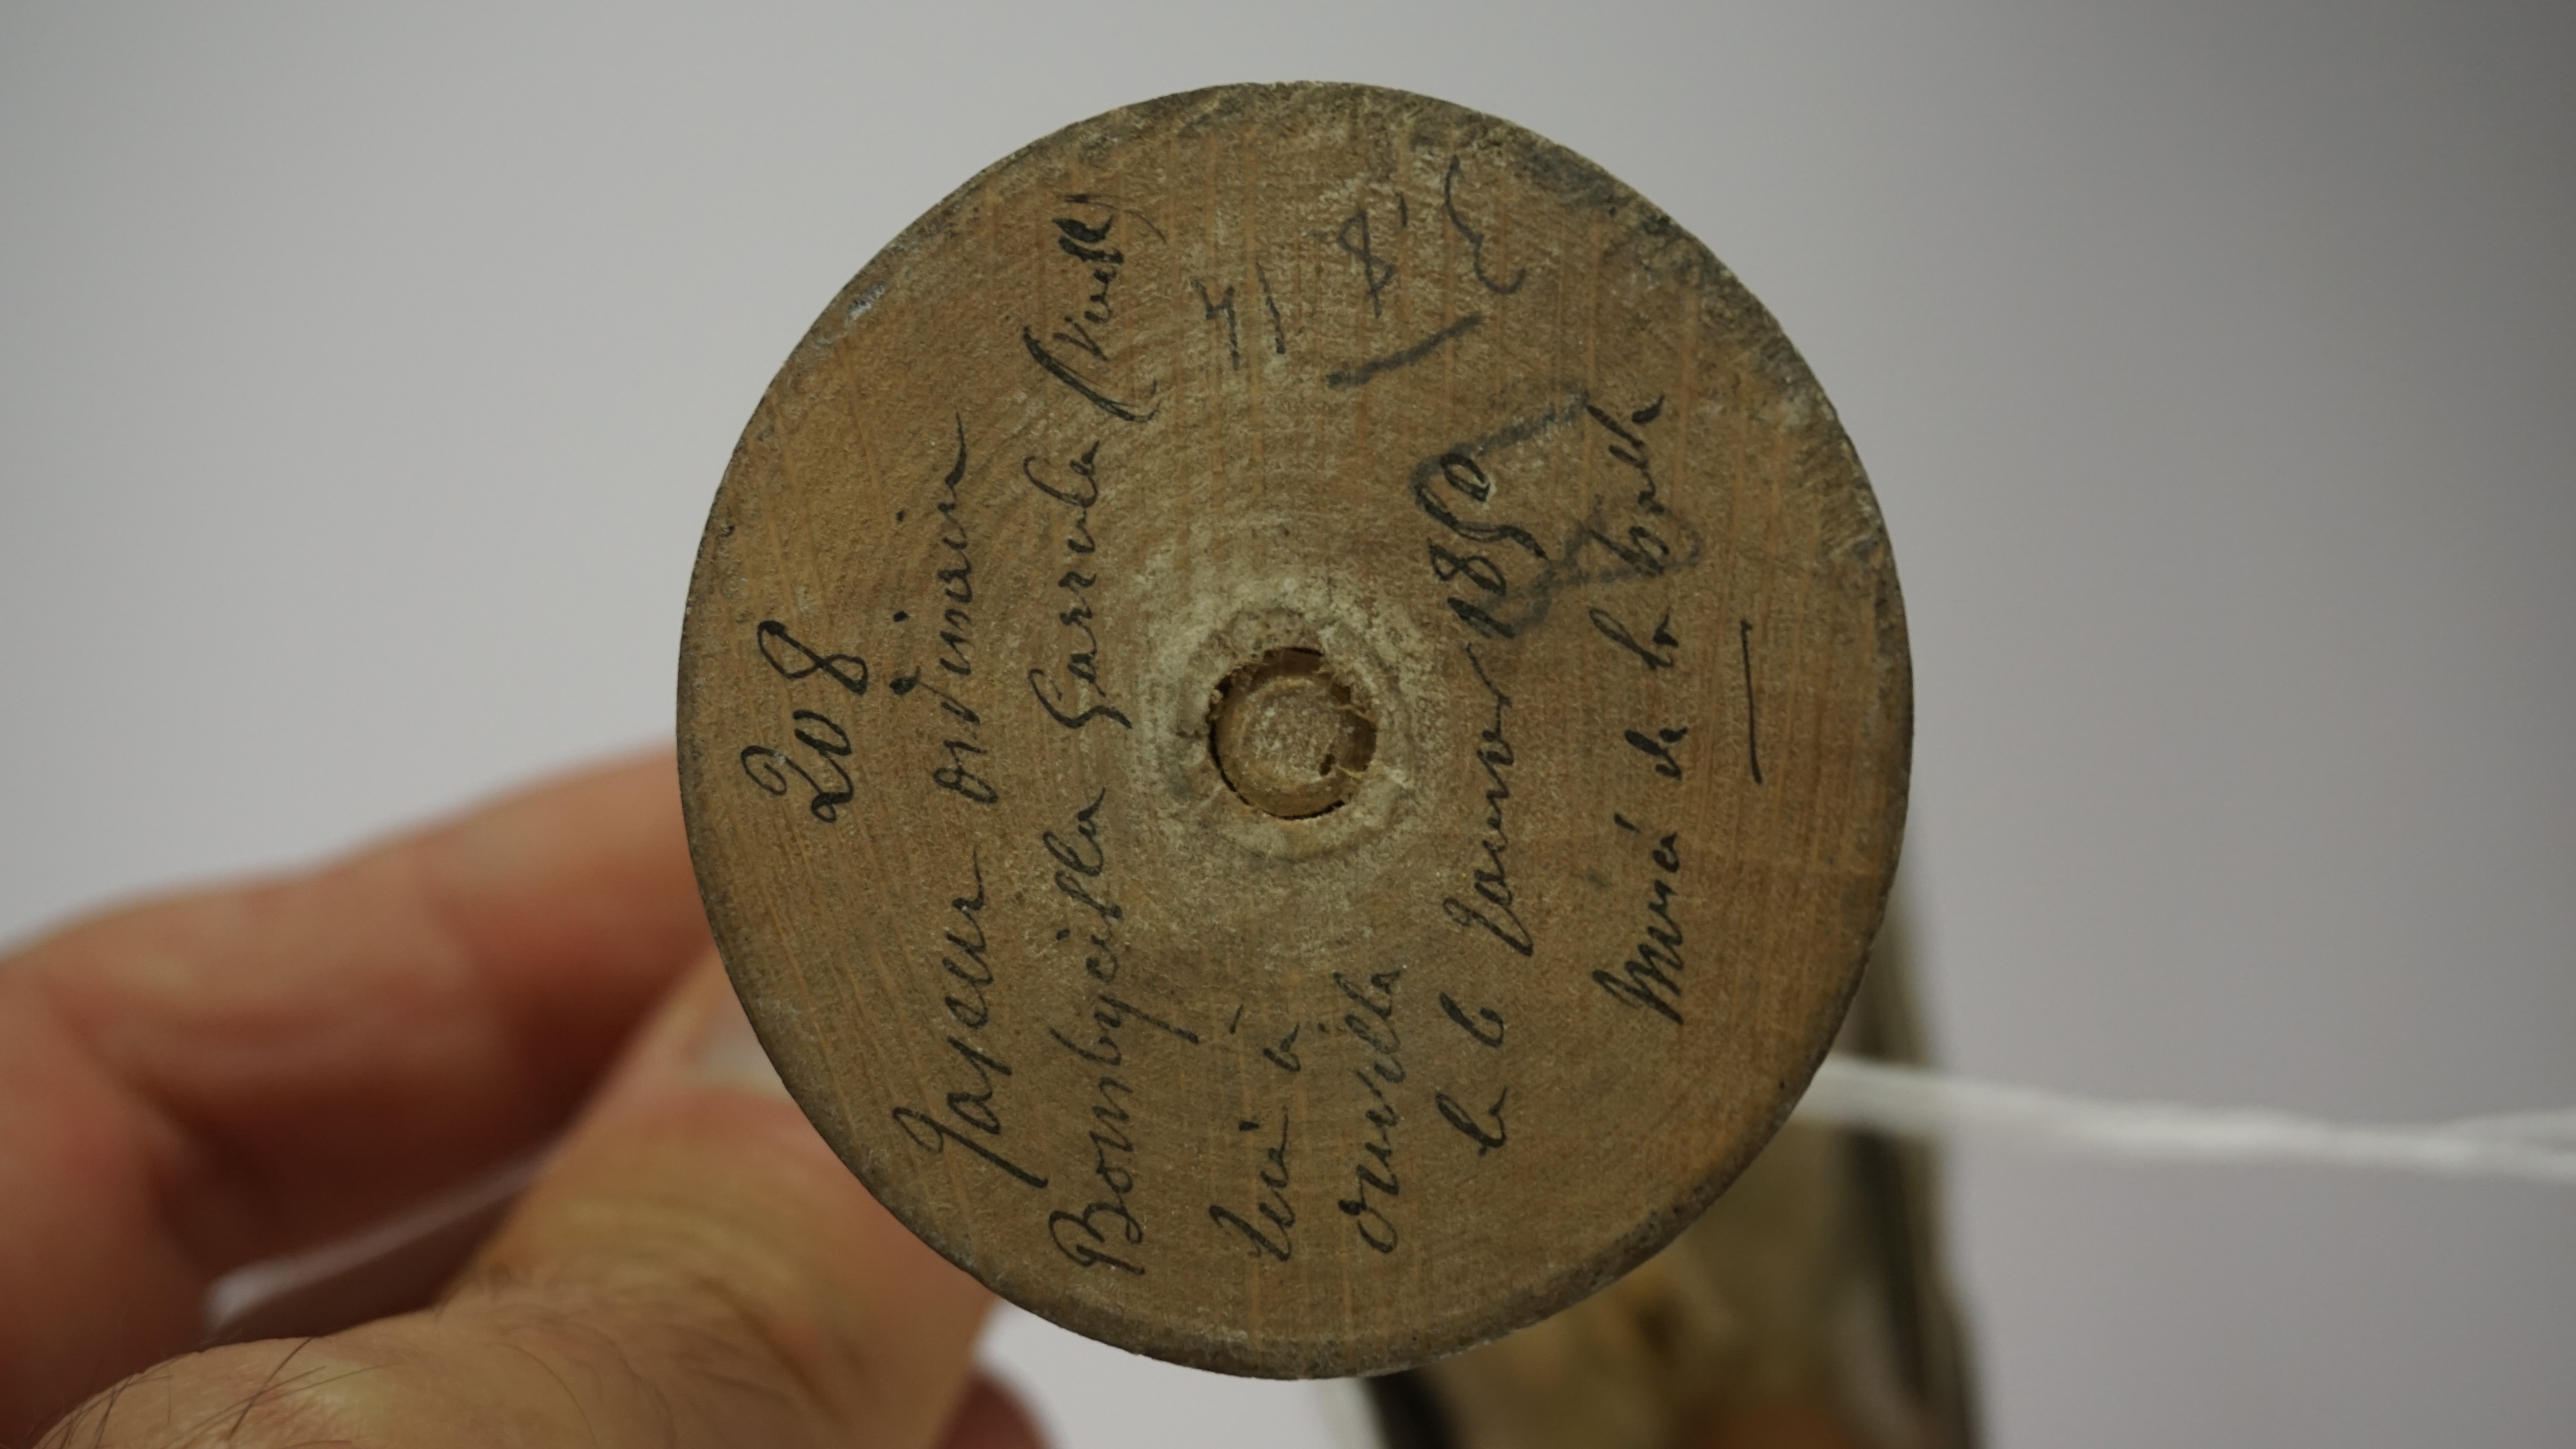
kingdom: Animalia
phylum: Chordata
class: Aves
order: Passeriformes
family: Bombycillidae
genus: Bombycilla
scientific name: Bombycilla garrulus
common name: Bohemian waxwing
